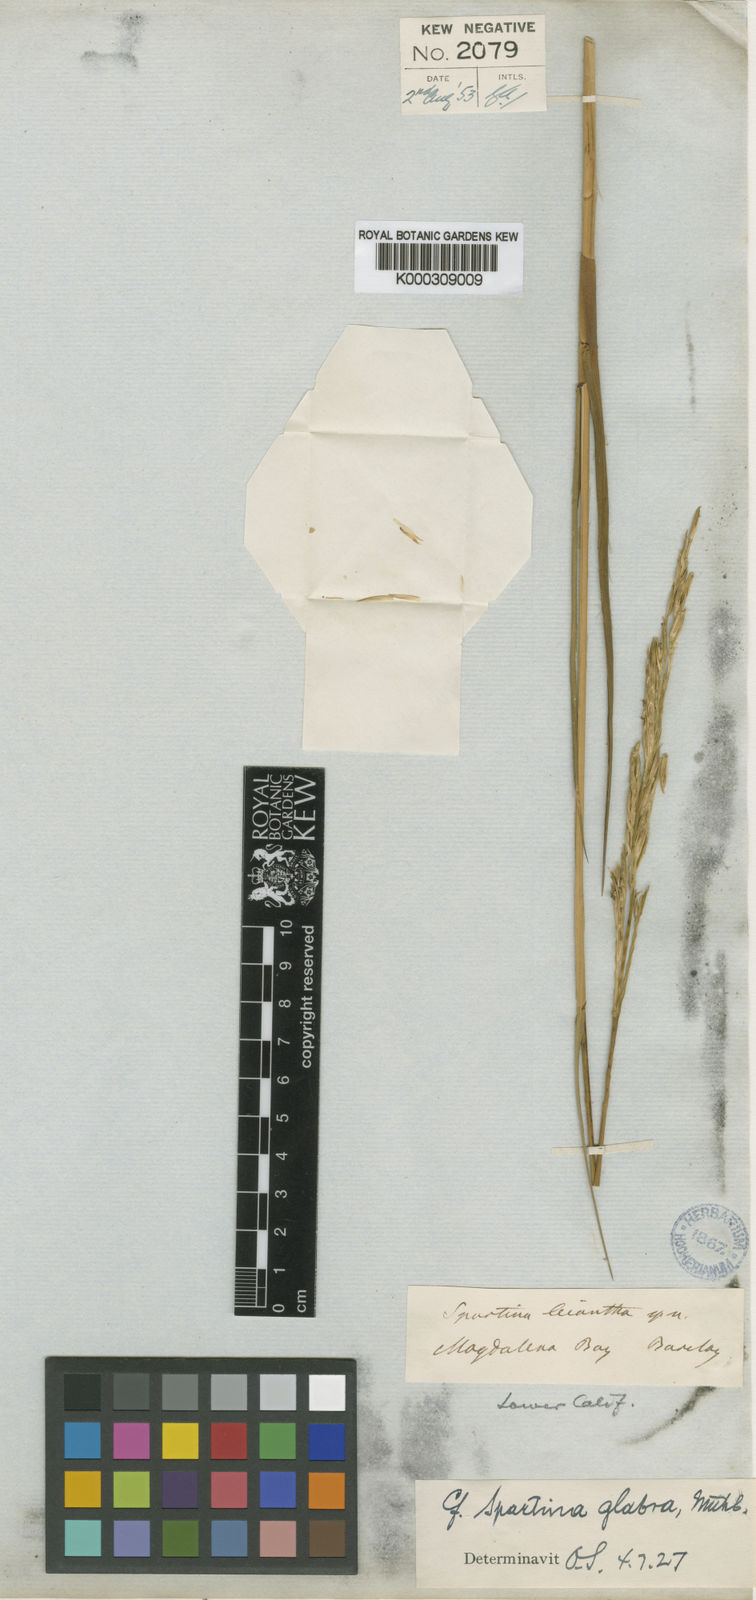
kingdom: Plantae
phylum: Tracheophyta
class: Liliopsida
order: Poales
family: Poaceae
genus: Sporobolus
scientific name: Sporobolus foliosus
